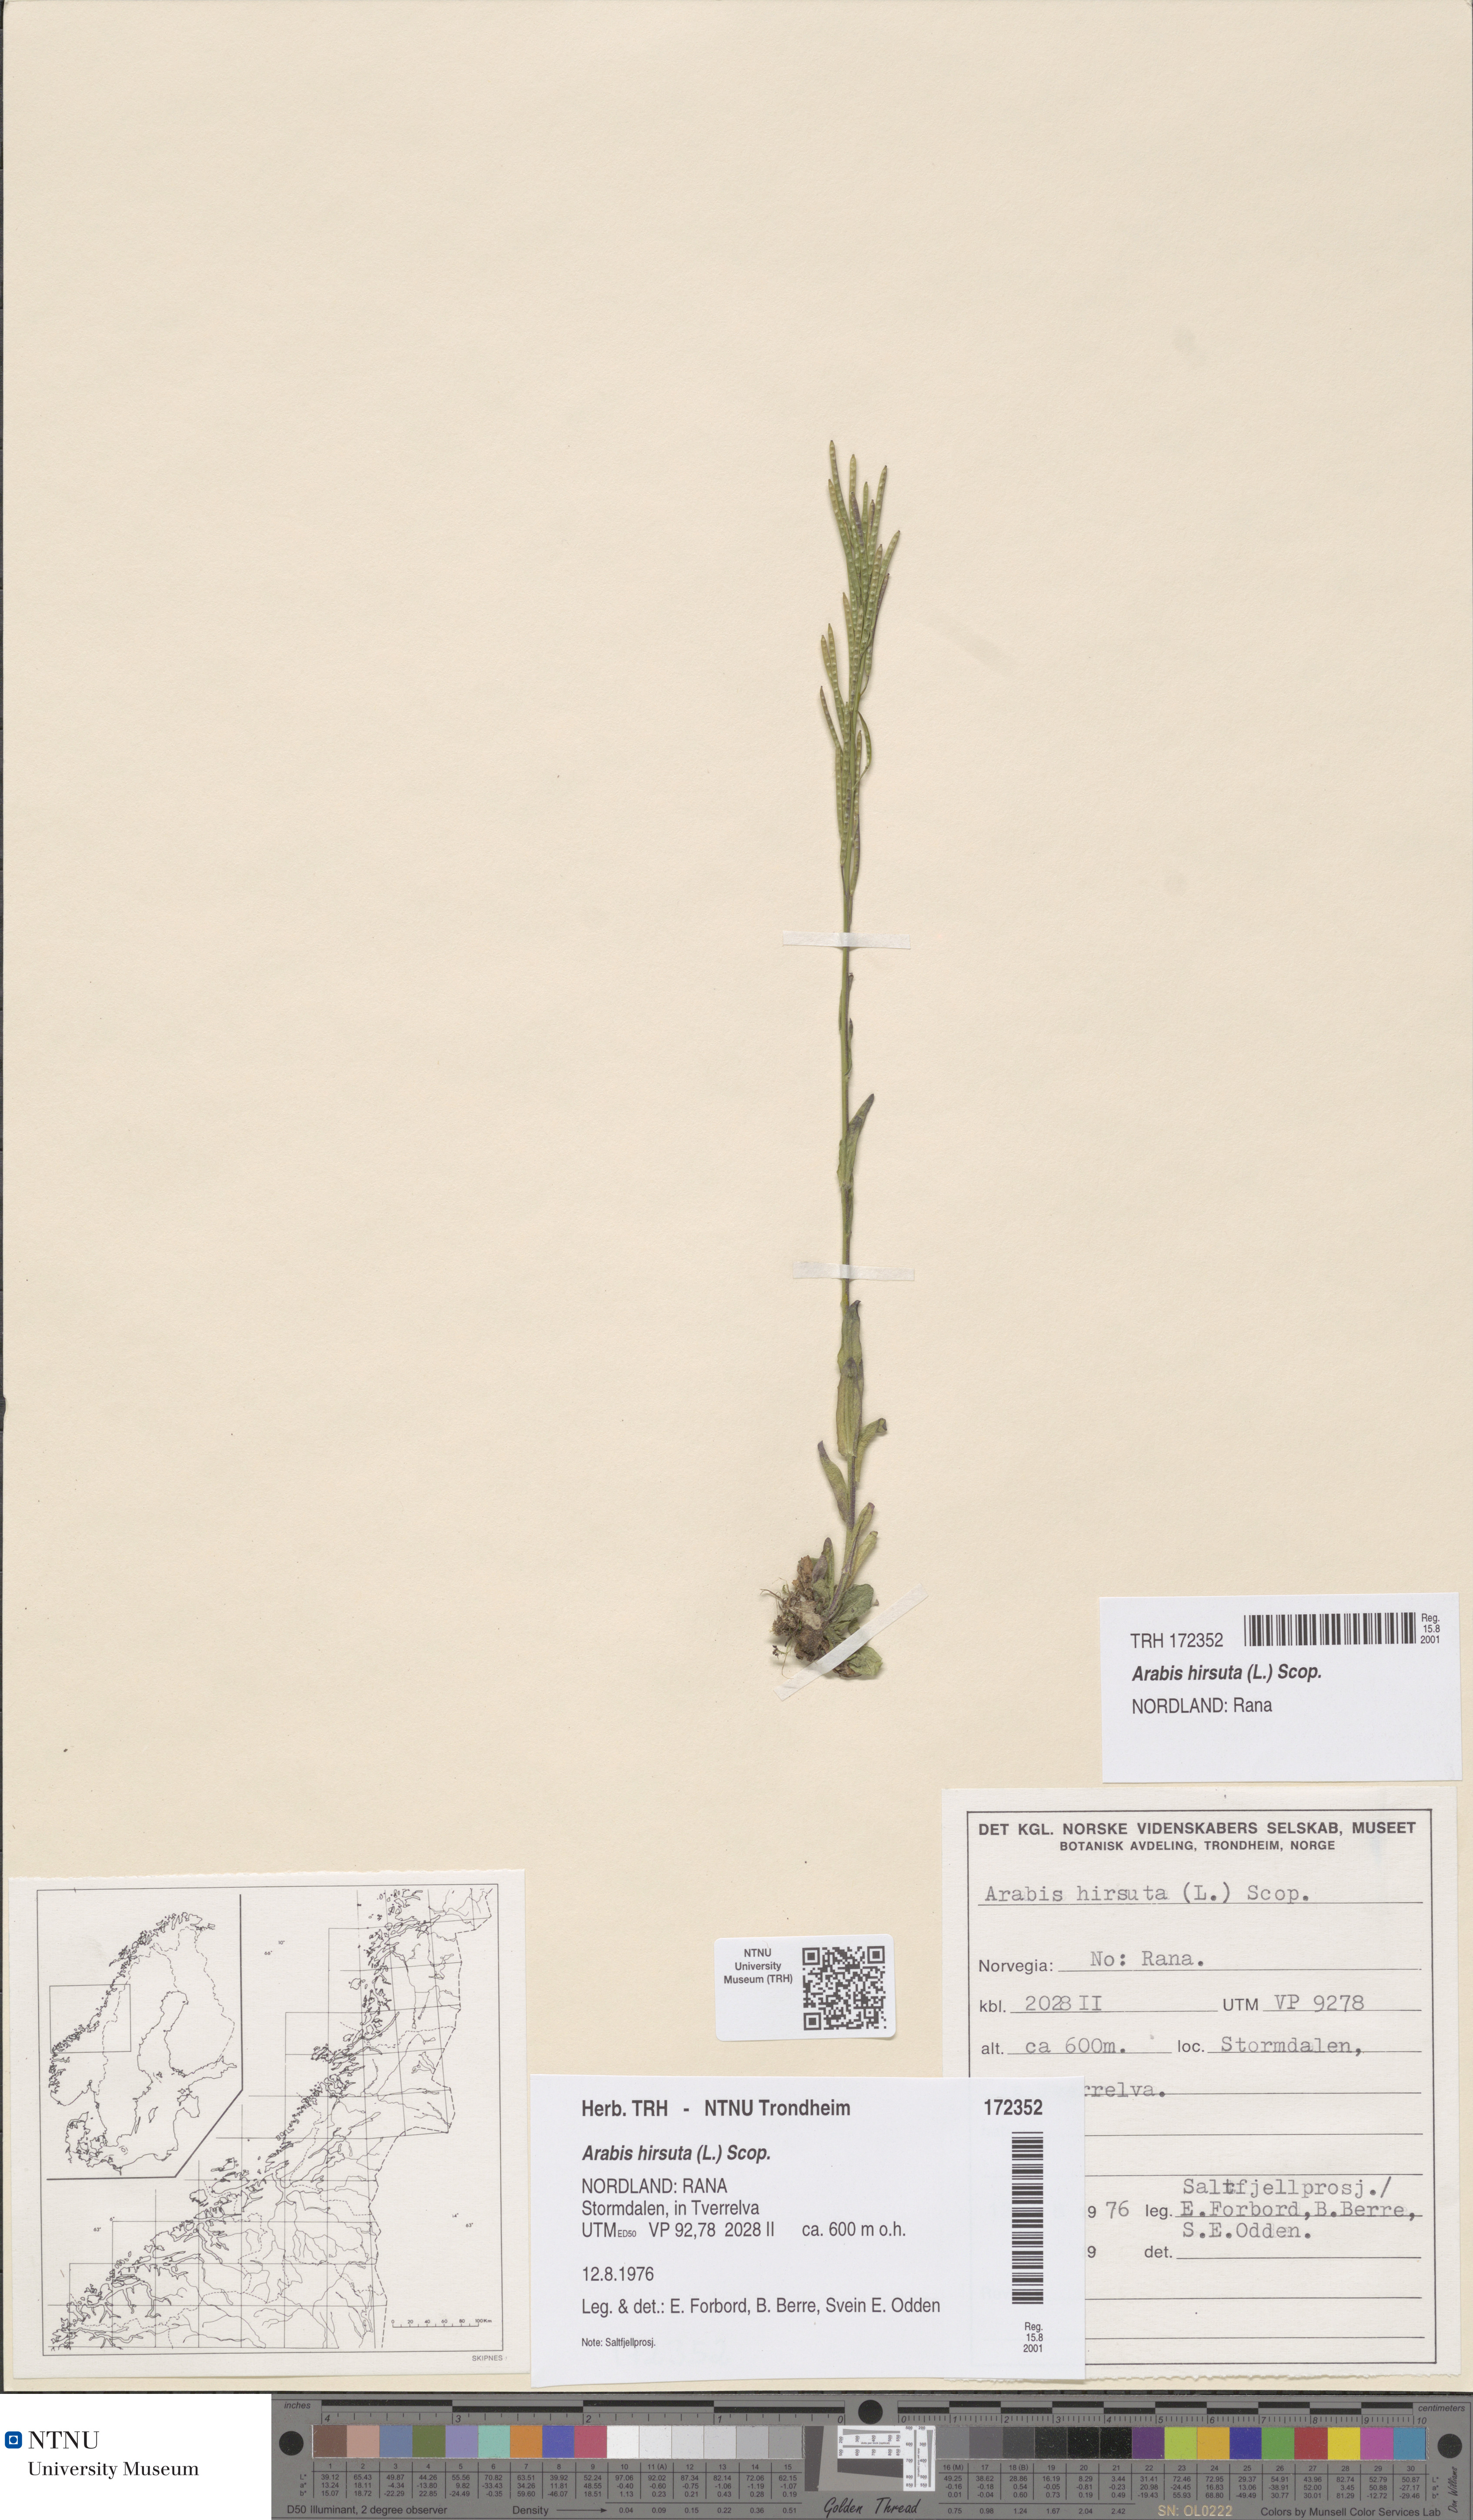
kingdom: Plantae
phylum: Tracheophyta
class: Magnoliopsida
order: Brassicales
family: Brassicaceae
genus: Arabis
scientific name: Arabis hirsuta
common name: Hairy rock-cress
